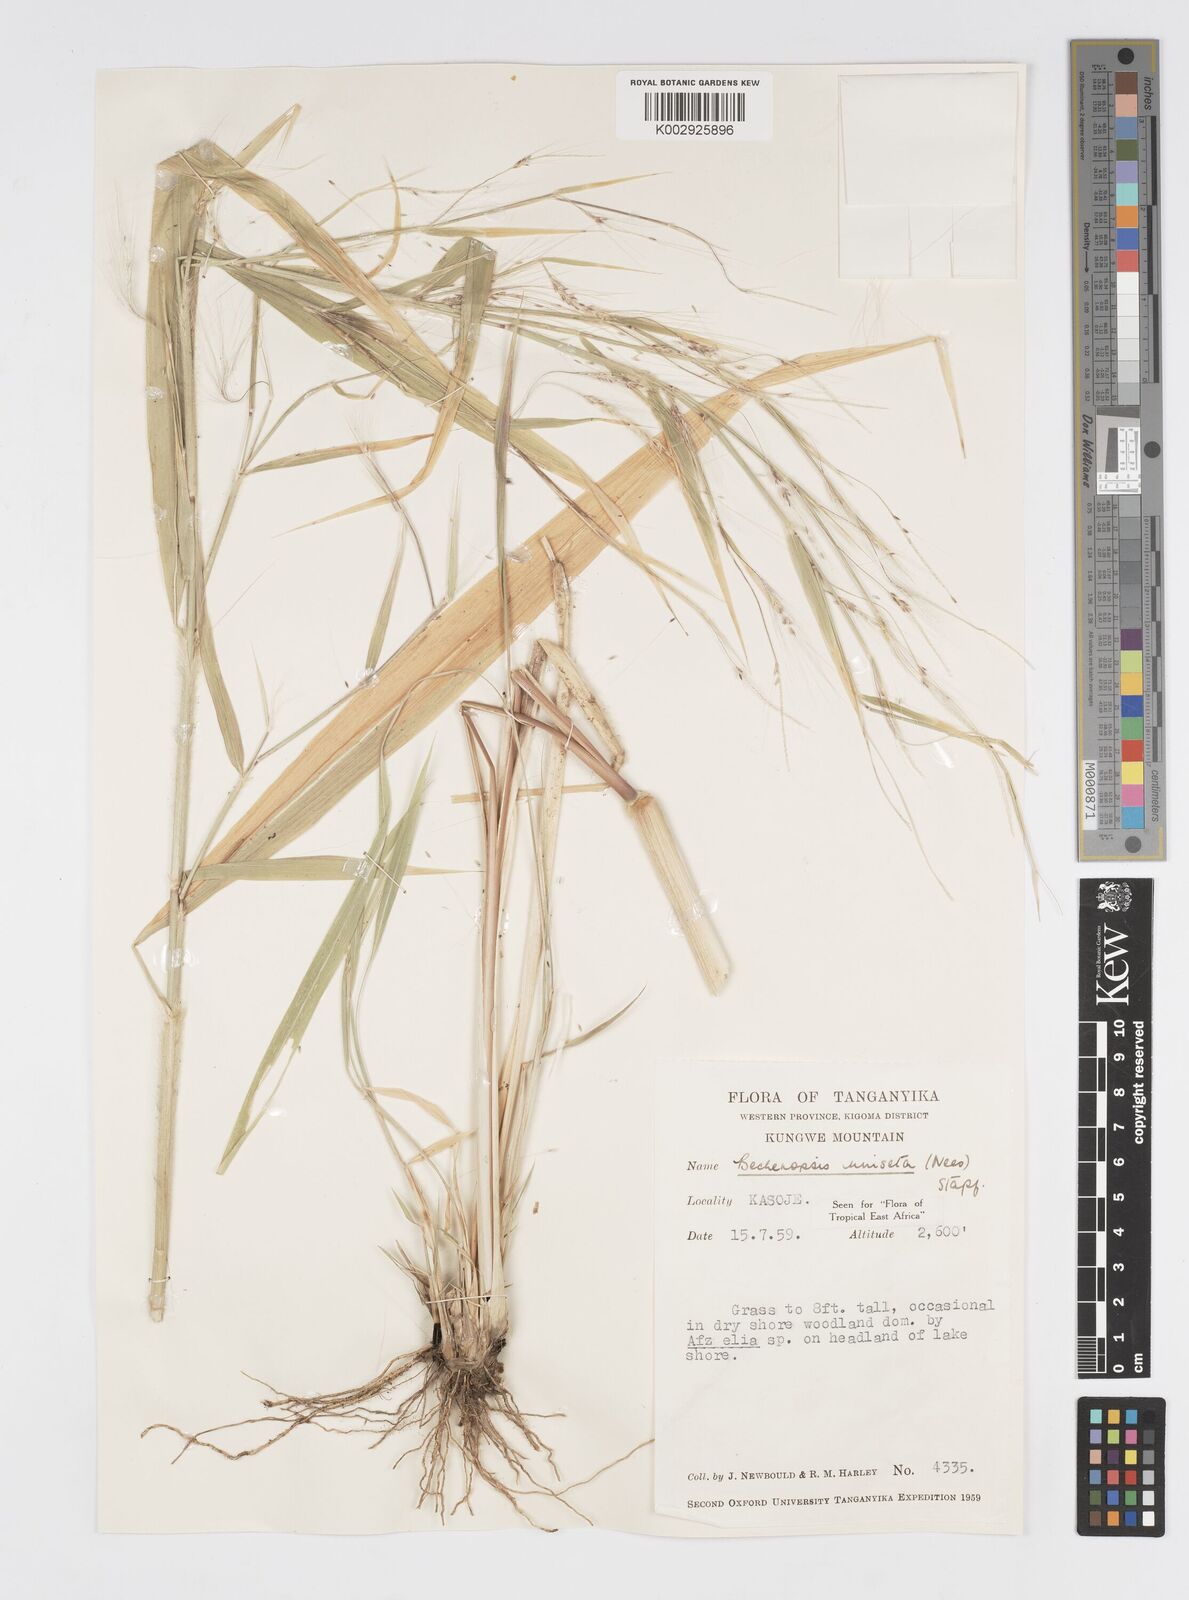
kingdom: Plantae
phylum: Tracheophyta
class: Liliopsida
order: Poales
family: Poaceae
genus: Cenchrus
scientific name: Cenchrus unisetus
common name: Natal grass
